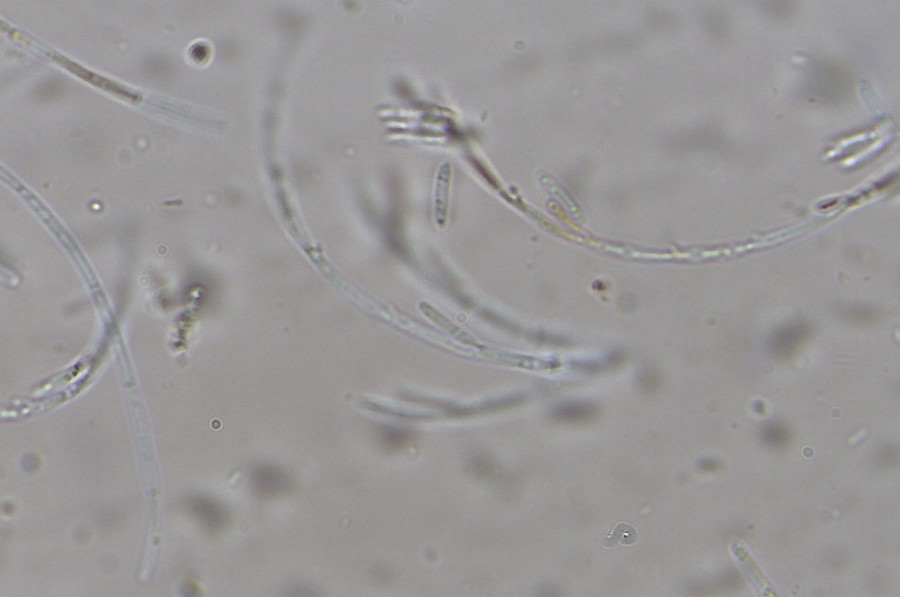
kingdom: Fungi
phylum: Ascomycota
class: Sordariomycetes
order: Hypocreales
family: Nectriaceae
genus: Tubercularia
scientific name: Tubercularia
